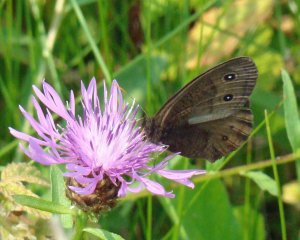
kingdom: Animalia
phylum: Arthropoda
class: Insecta
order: Lepidoptera
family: Nymphalidae
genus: Cercyonis
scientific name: Cercyonis pegala
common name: Common Wood-Nymph
